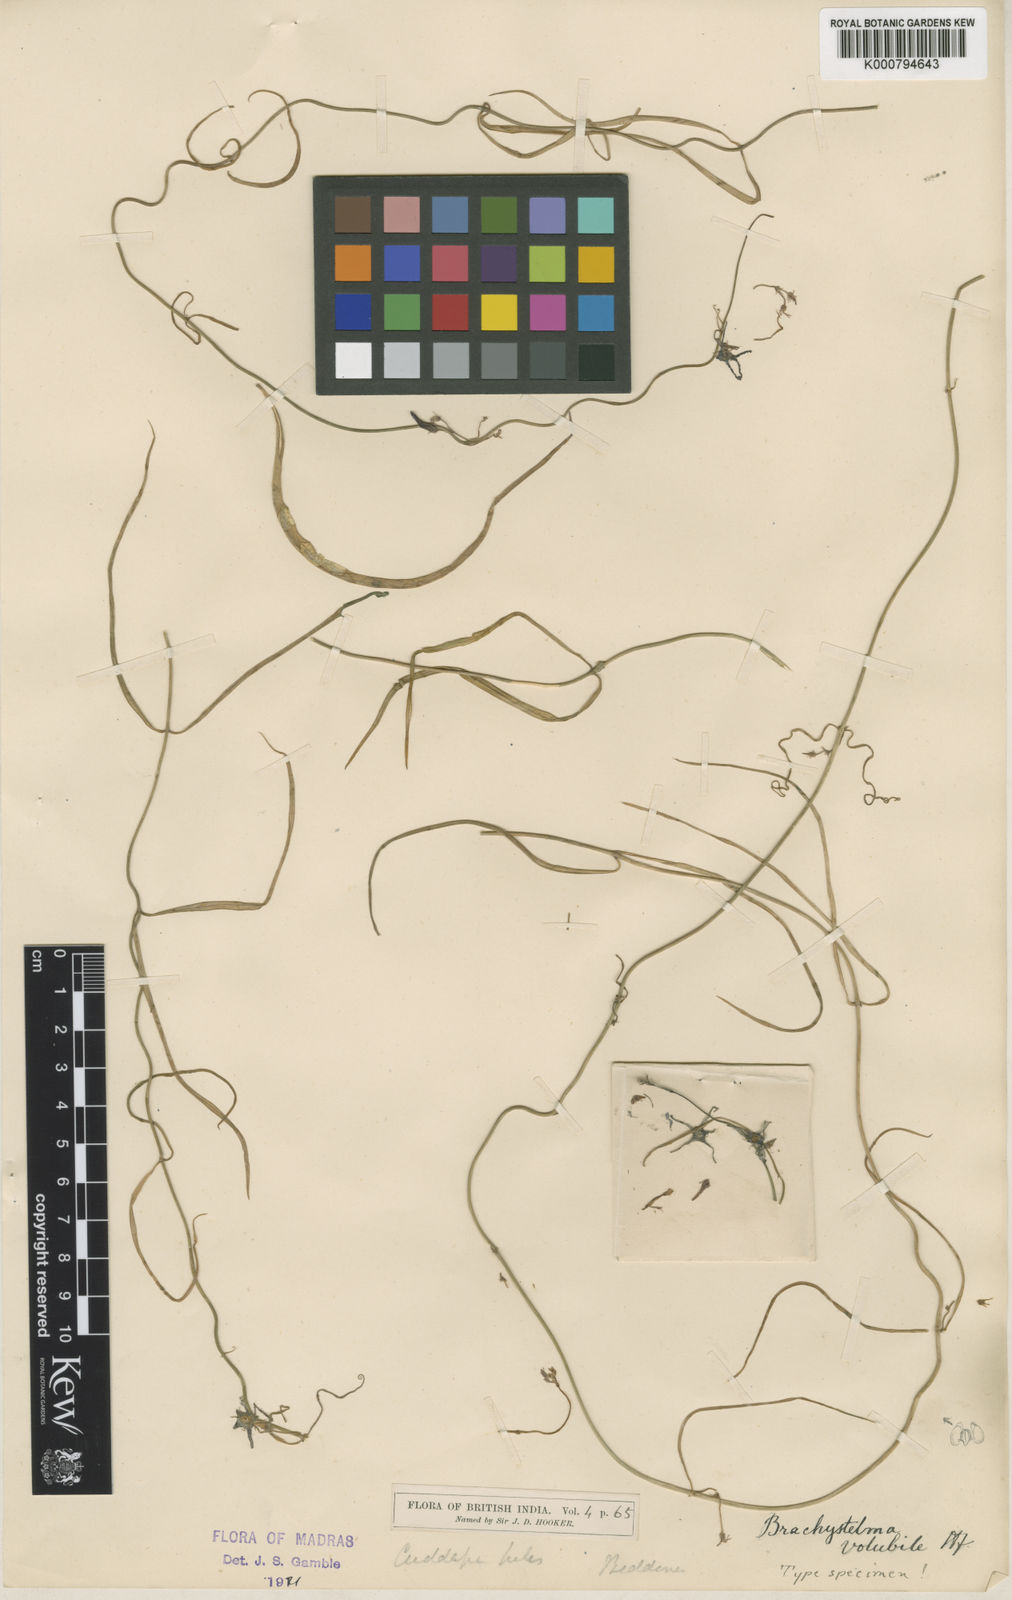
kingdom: Plantae
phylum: Tracheophyta
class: Magnoliopsida
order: Gentianales
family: Apocynaceae
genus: Ceropegia
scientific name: Ceropegia volubicaulis
